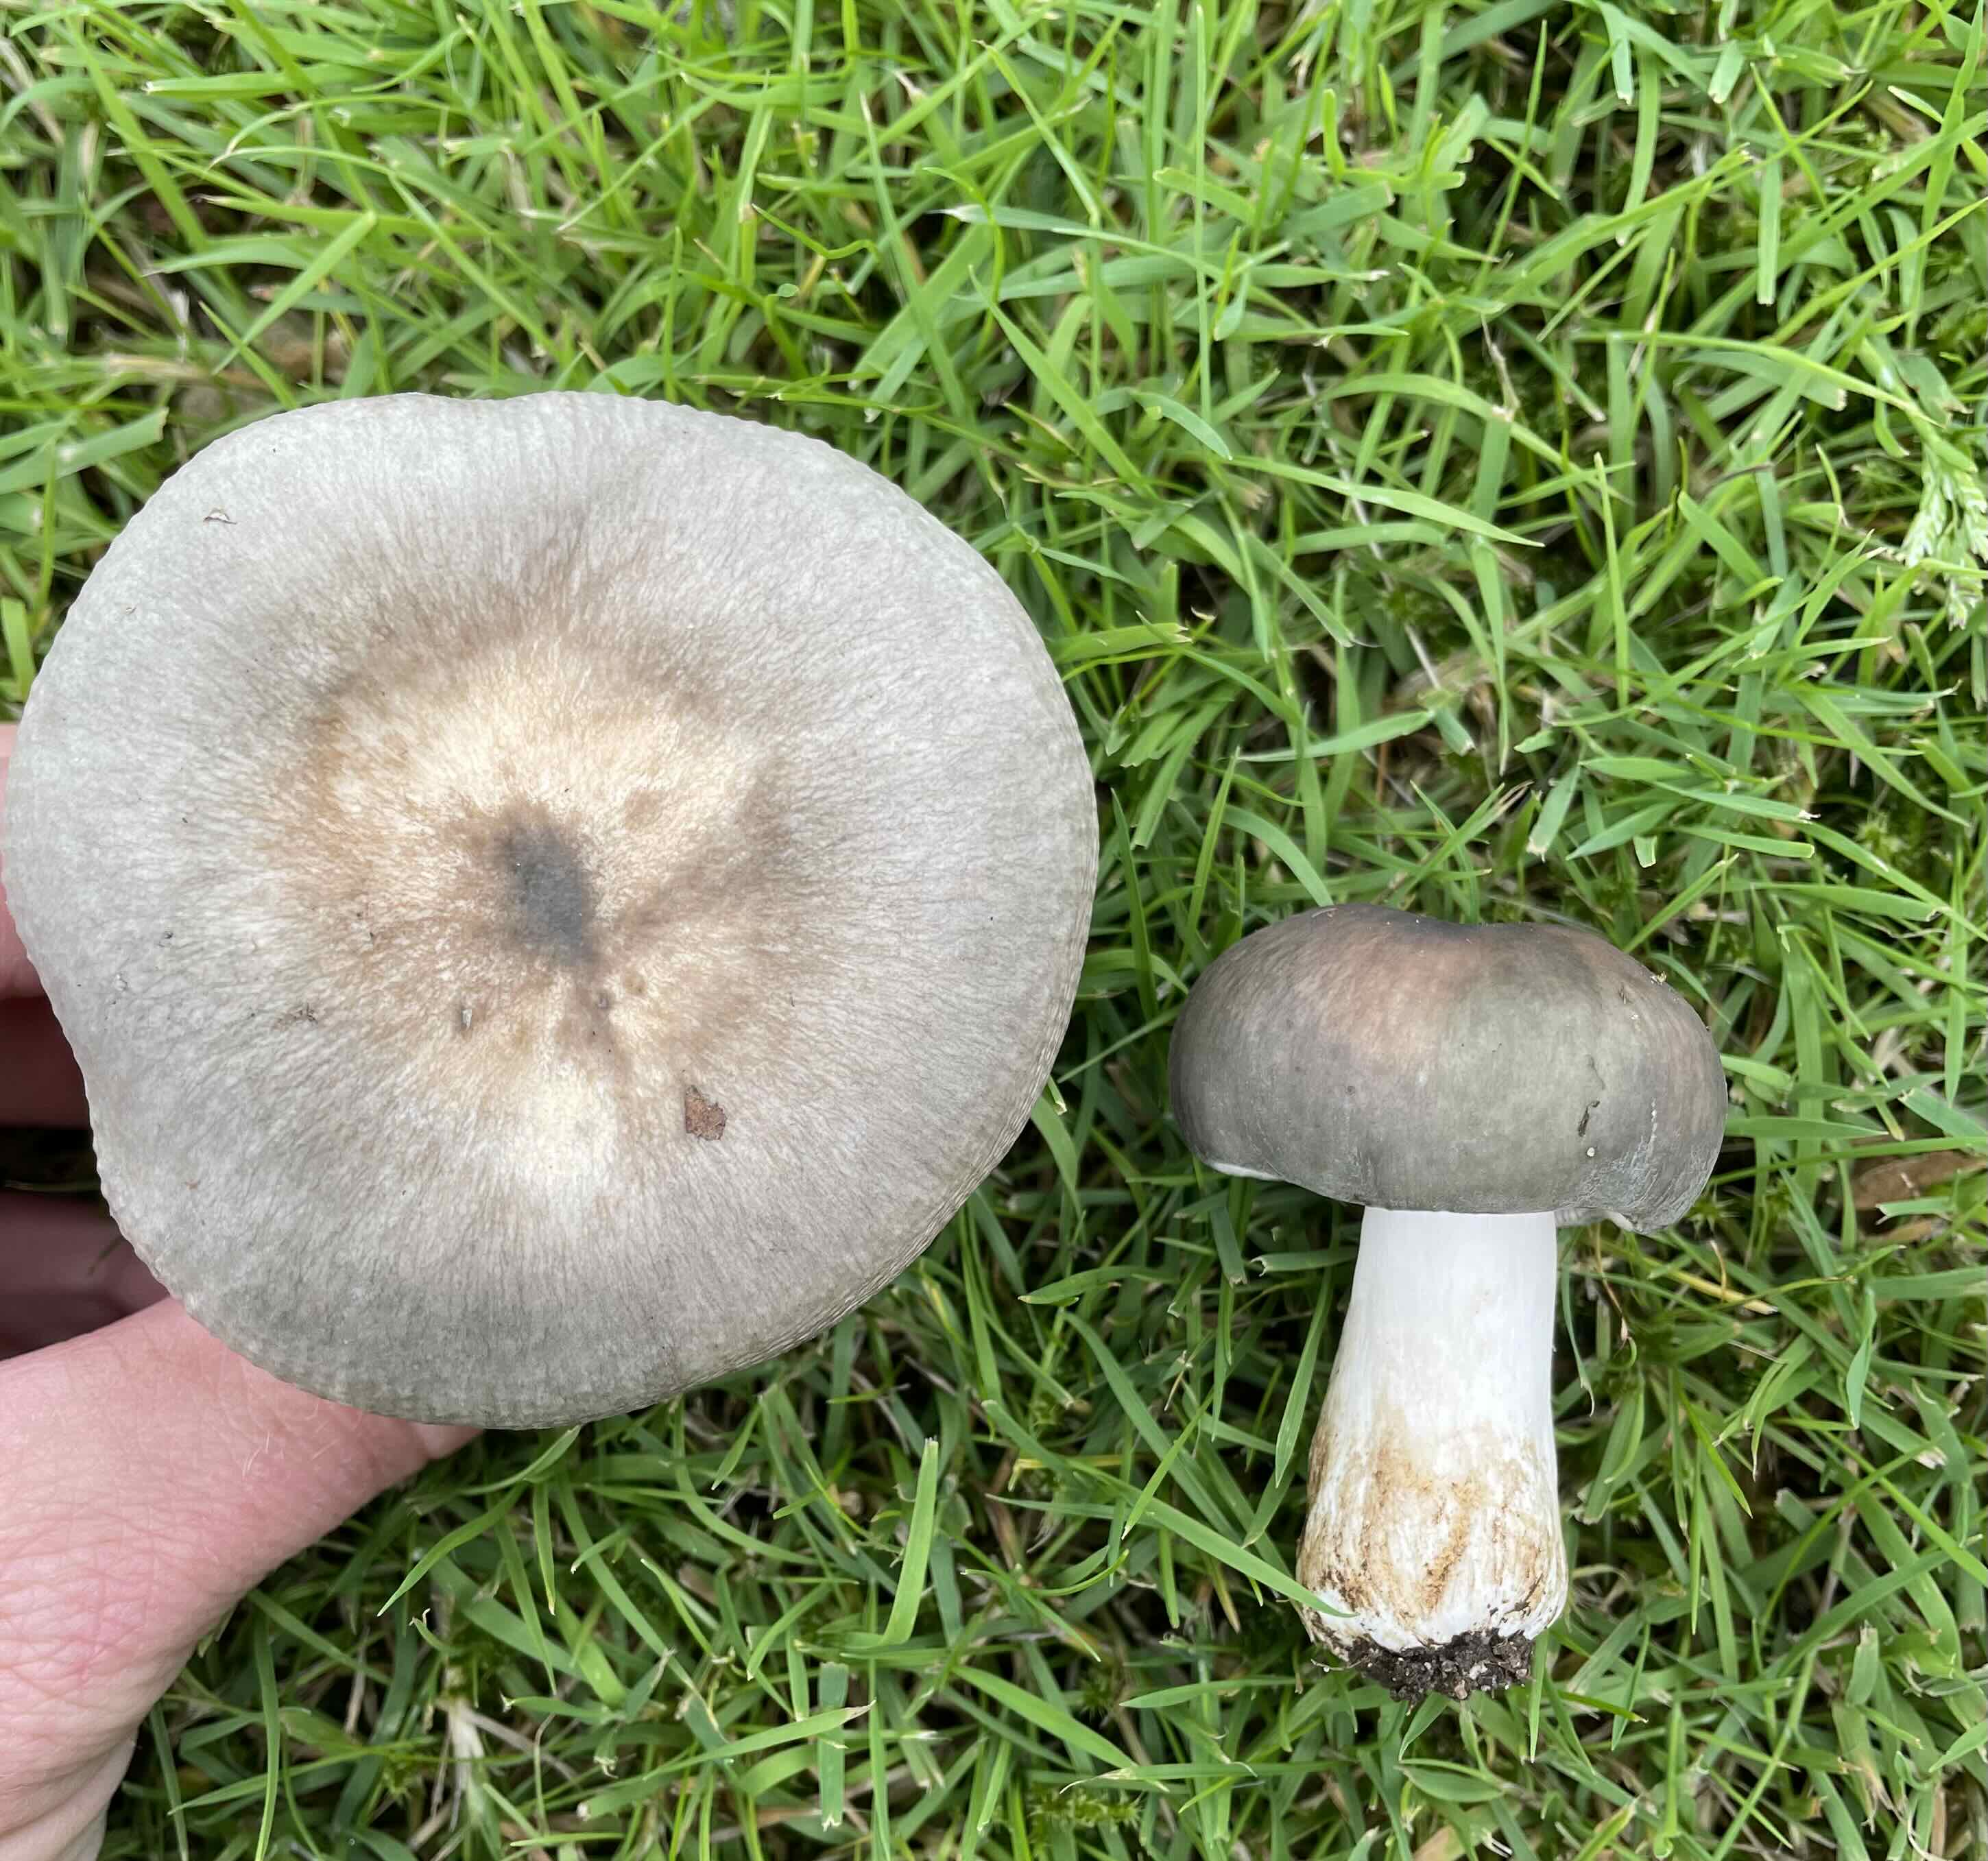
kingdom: Fungi
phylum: Basidiomycota
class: Agaricomycetes
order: Russulales
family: Russulaceae
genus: Russula
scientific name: Russula
